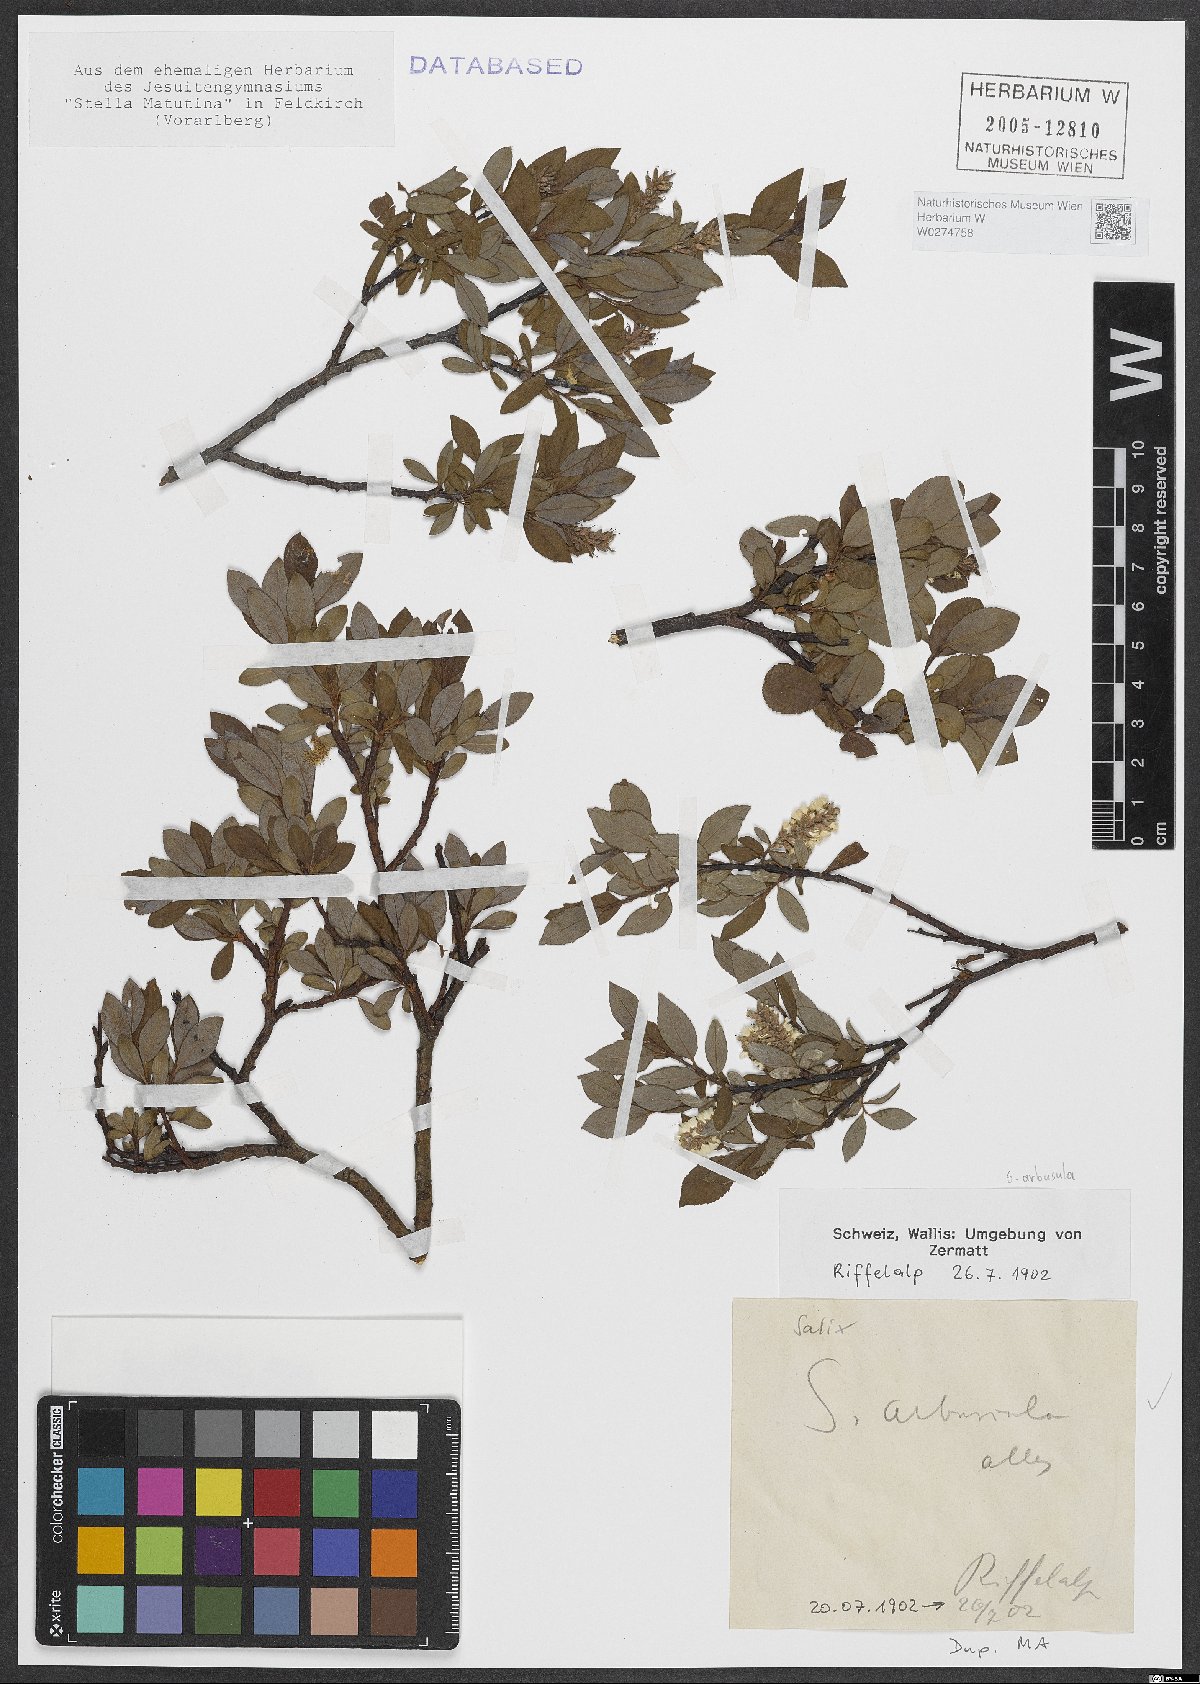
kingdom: Plantae
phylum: Tracheophyta
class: Magnoliopsida
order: Malpighiales
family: Salicaceae
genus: Salix
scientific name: Salix arbuscula
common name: Mountain willow
